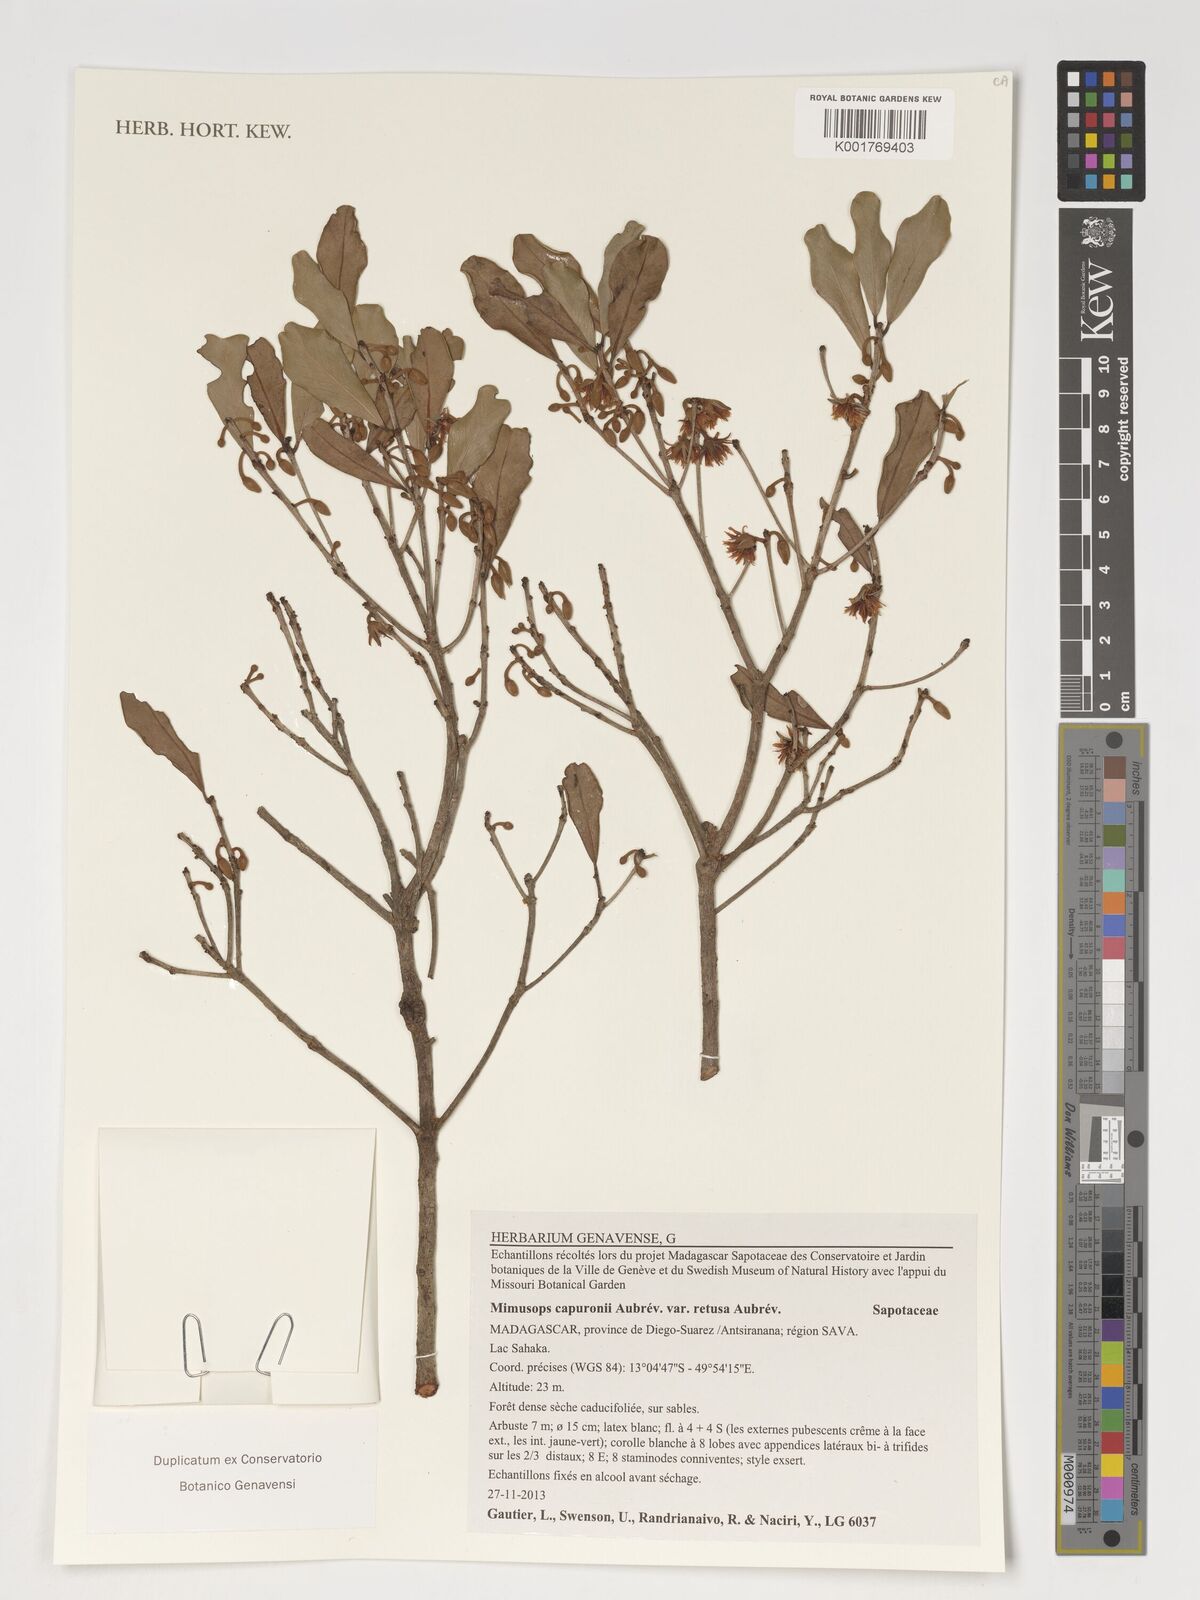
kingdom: Plantae
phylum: Tracheophyta
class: Magnoliopsida
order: Ericales
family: Sapotaceae
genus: Mimusops
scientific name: Mimusops capuronii
